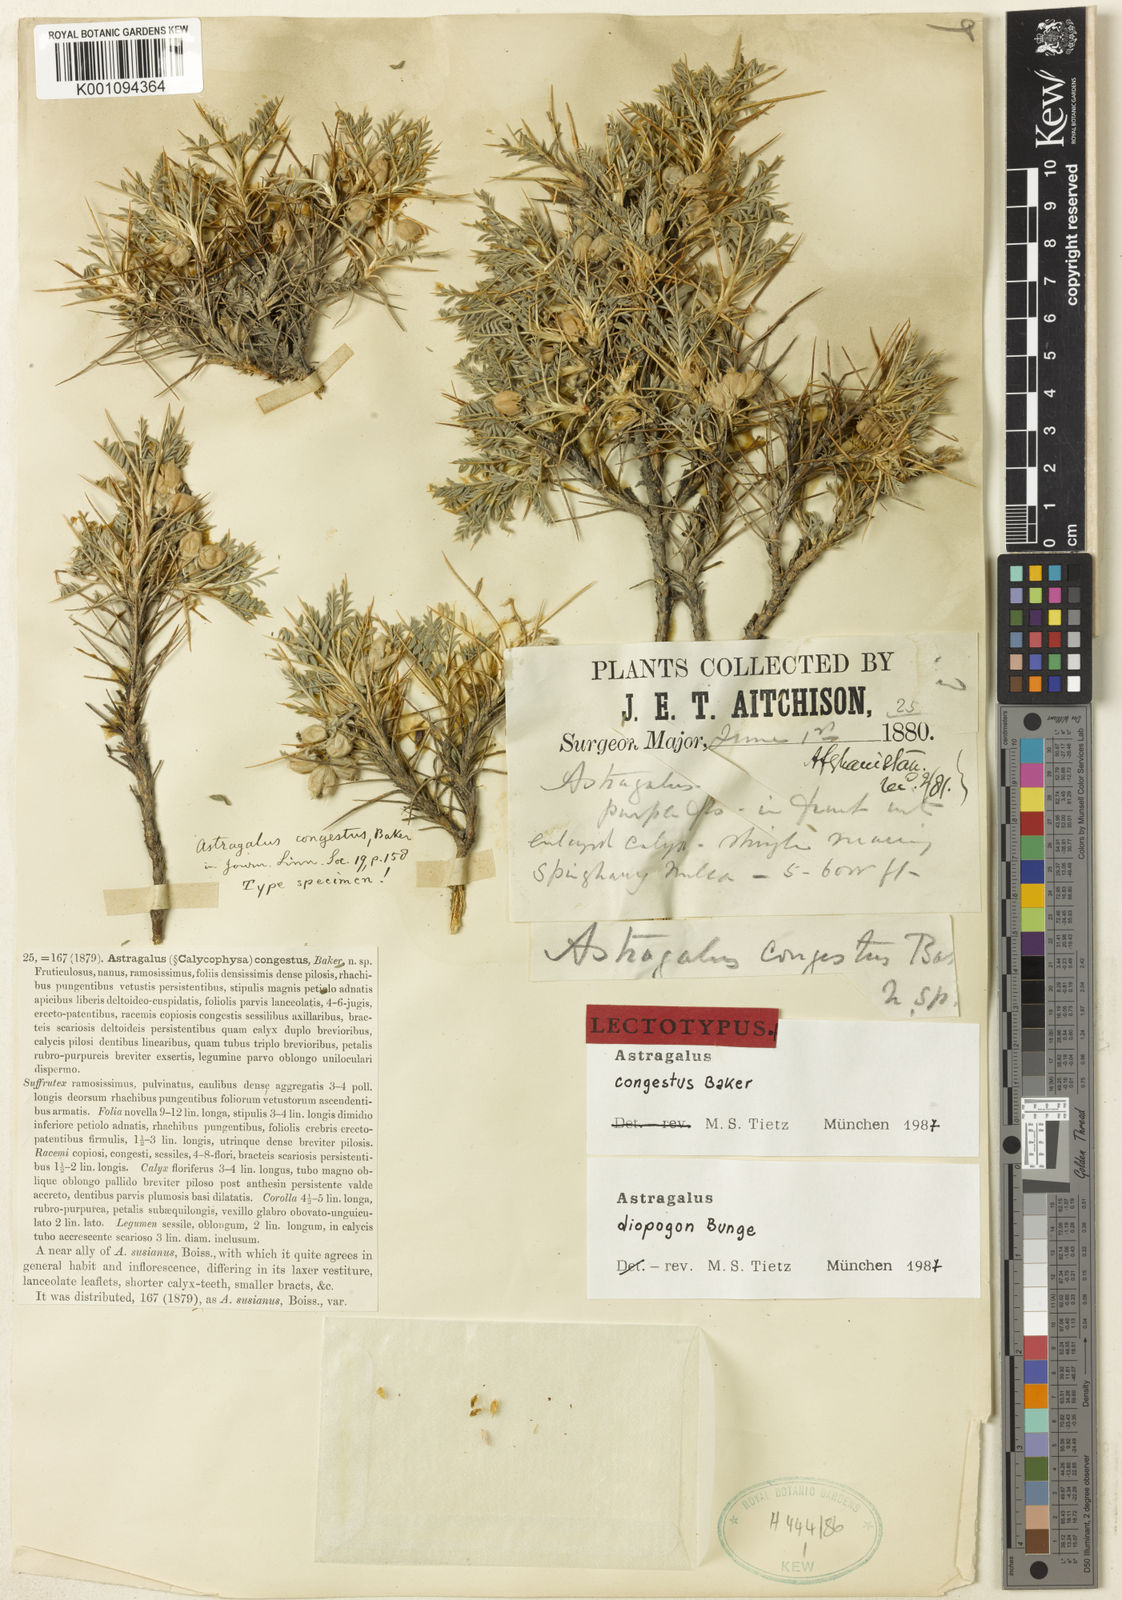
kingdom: Plantae
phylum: Tracheophyta
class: Magnoliopsida
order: Fabales
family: Fabaceae
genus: Astragalus
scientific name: Astragalus
